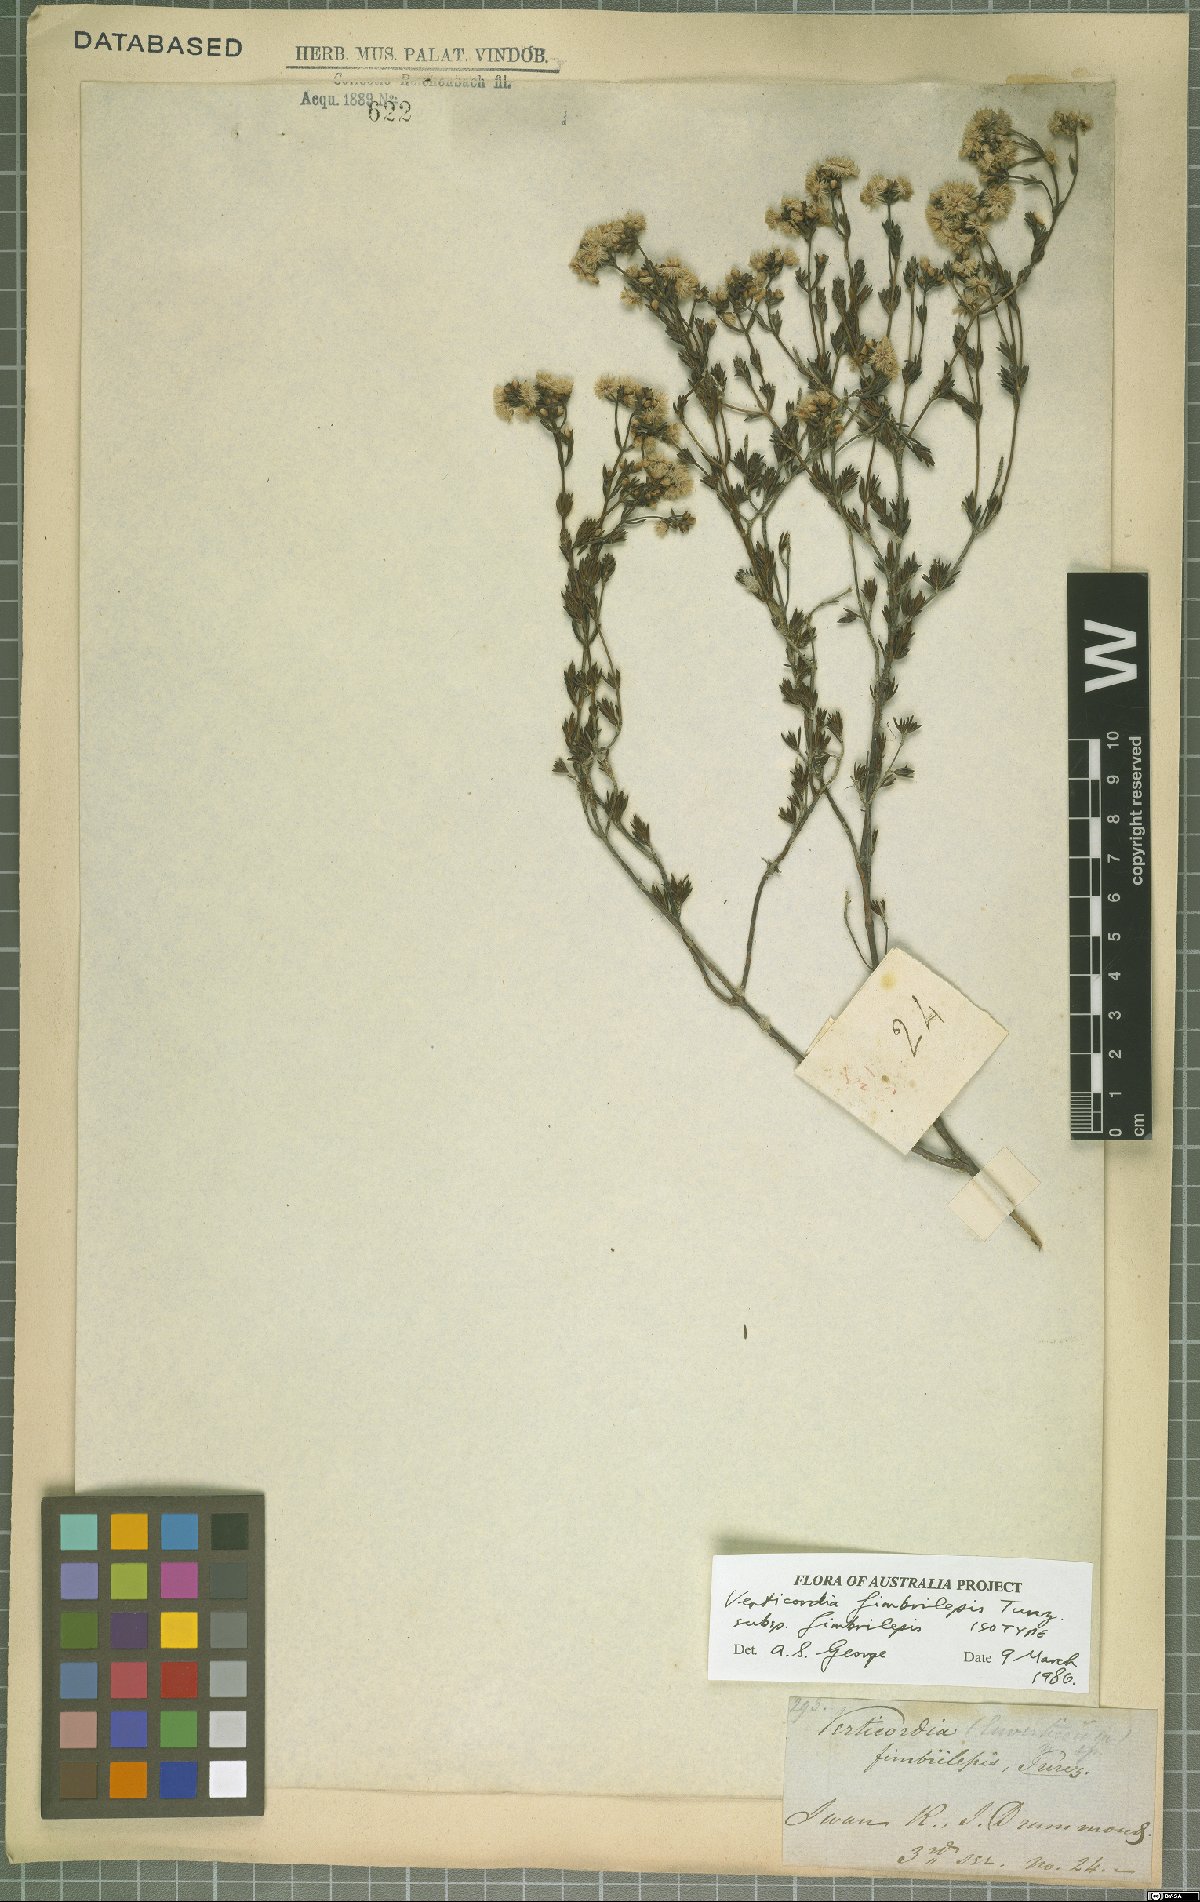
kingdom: Plantae
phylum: Tracheophyta
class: Magnoliopsida
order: Myrtales
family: Myrtaceae
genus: Verticordia
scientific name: Verticordia fimbrilepis
